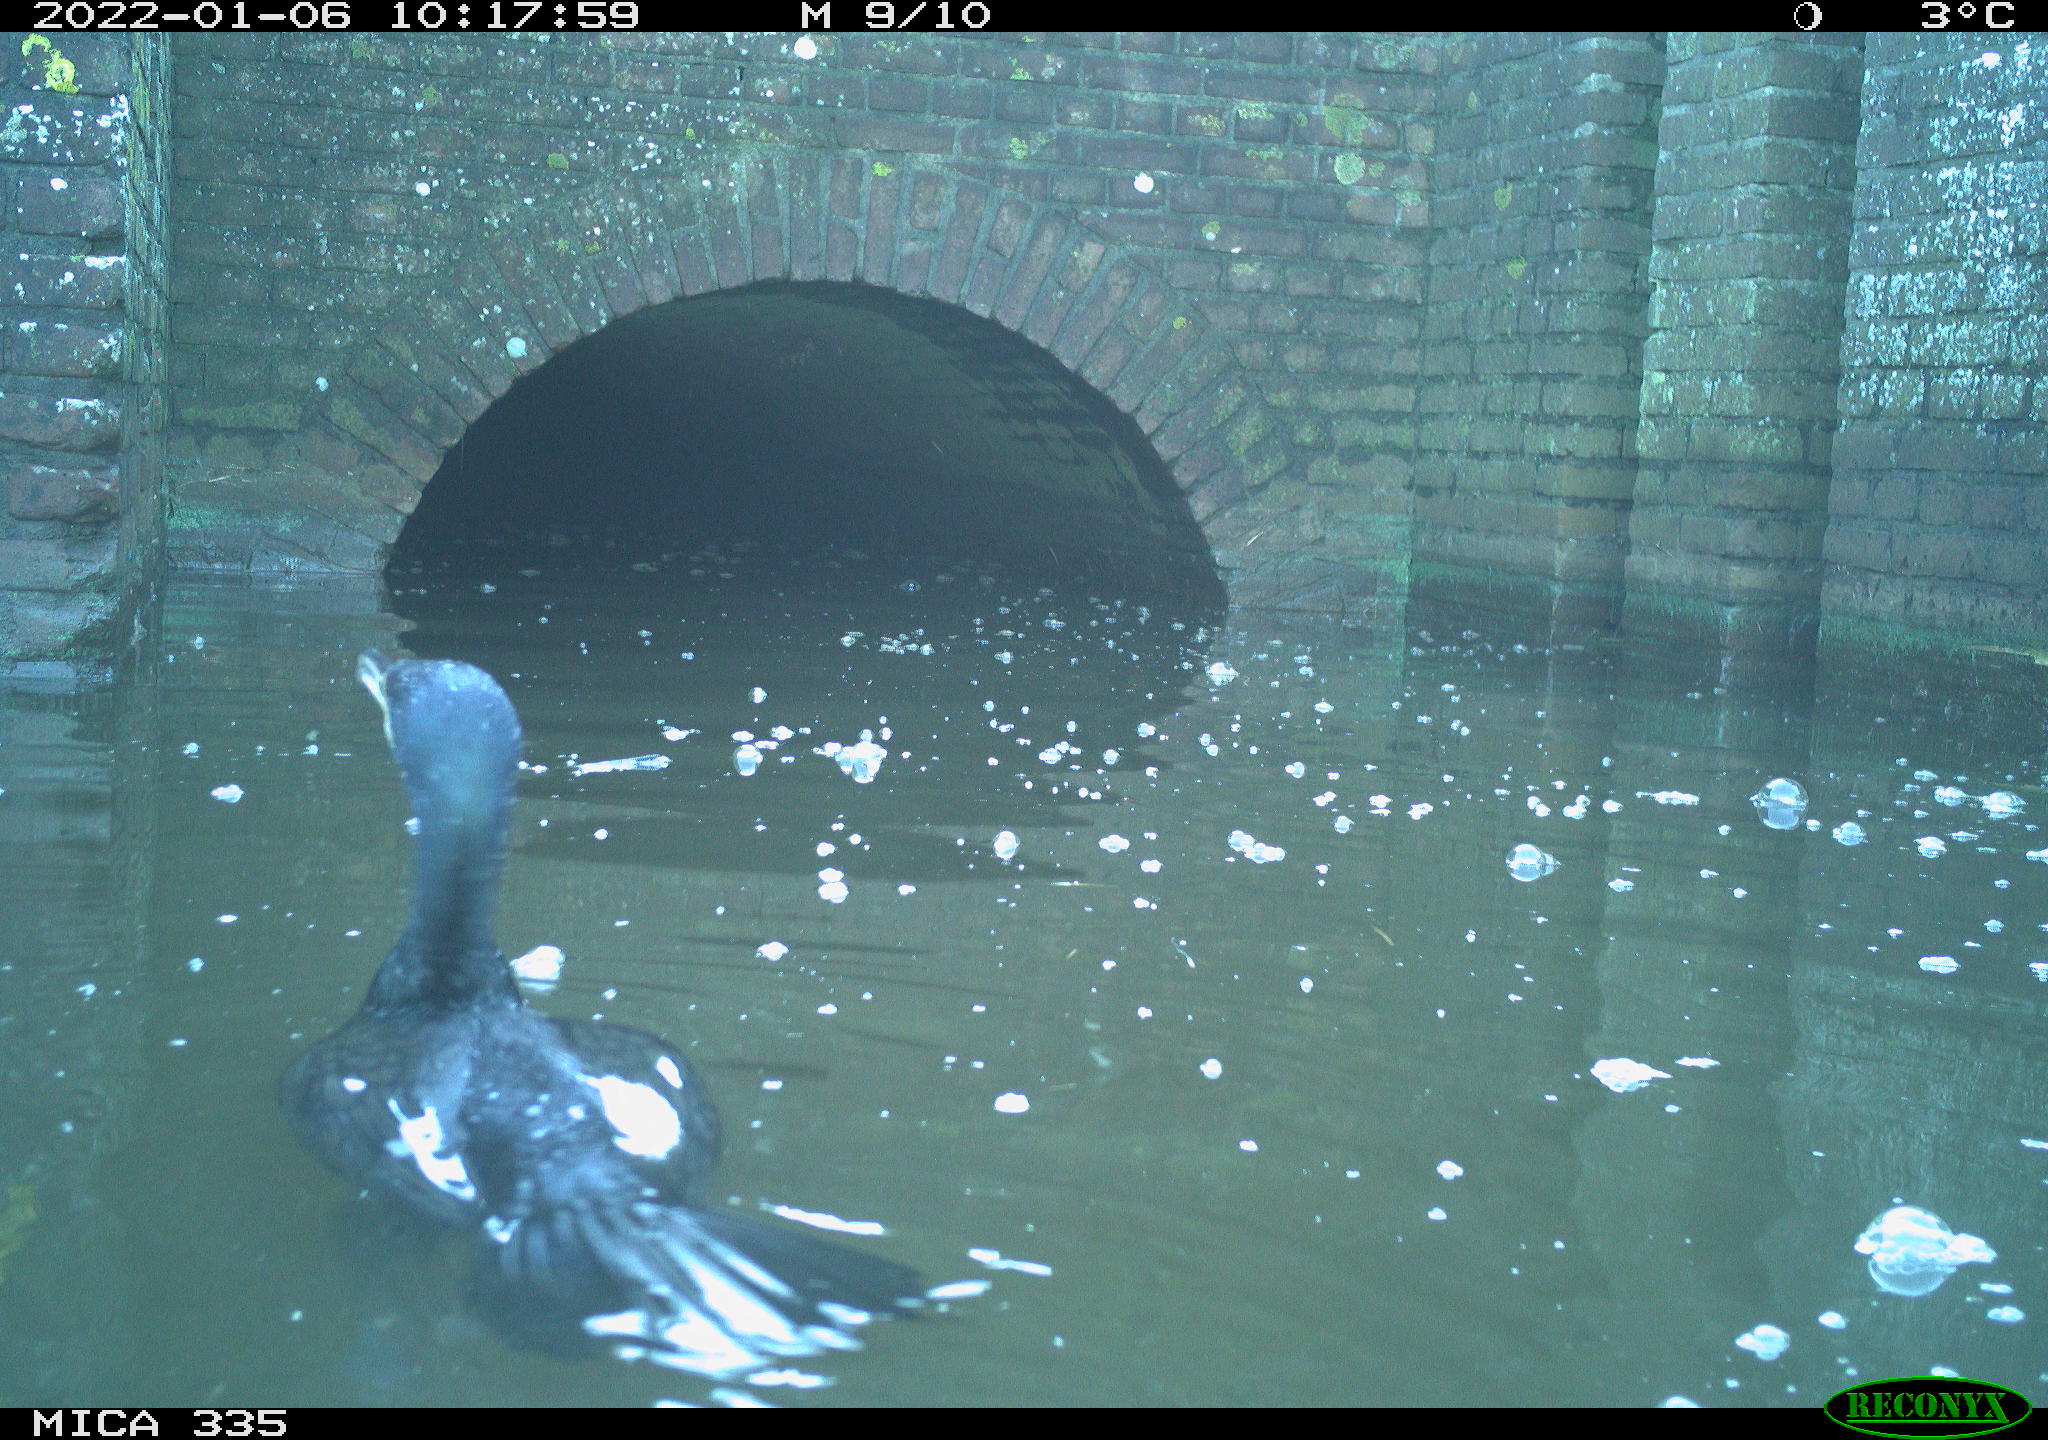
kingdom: Animalia
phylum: Chordata
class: Aves
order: Suliformes
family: Phalacrocoracidae
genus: Phalacrocorax
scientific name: Phalacrocorax carbo
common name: Great cormorant
